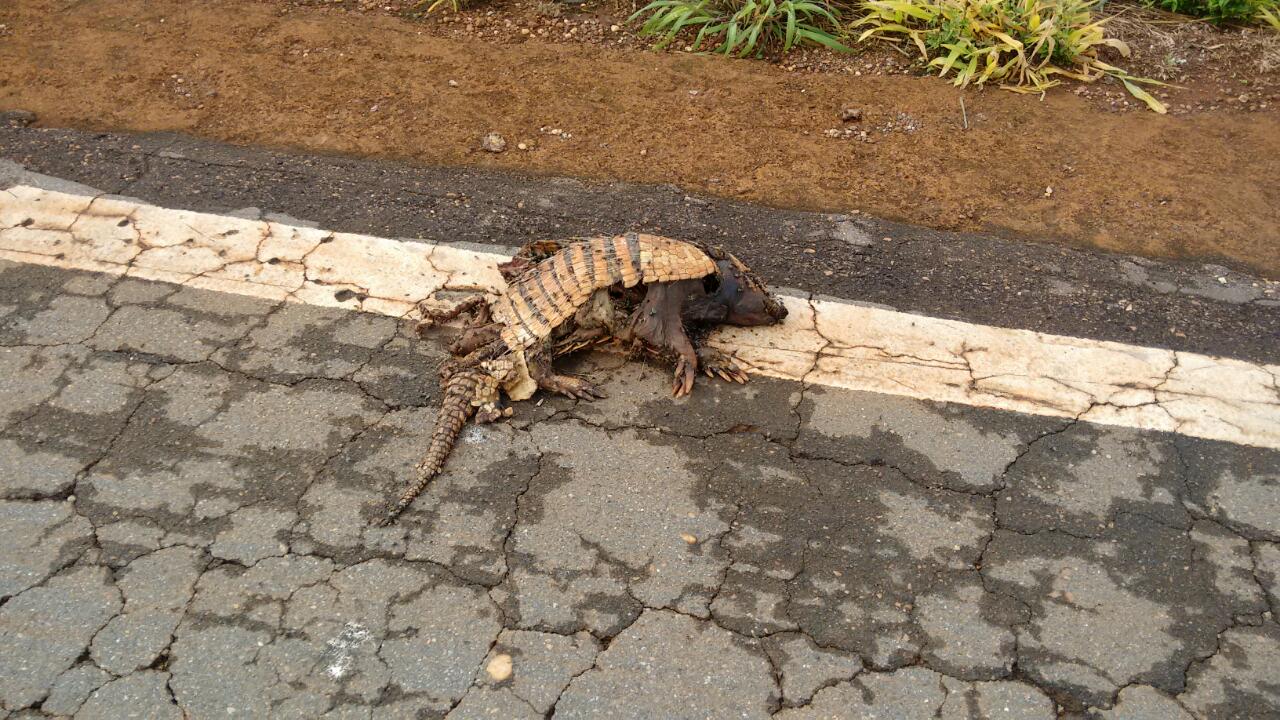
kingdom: Animalia
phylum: Chordata
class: Mammalia
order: Cingulata
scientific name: Cingulata
